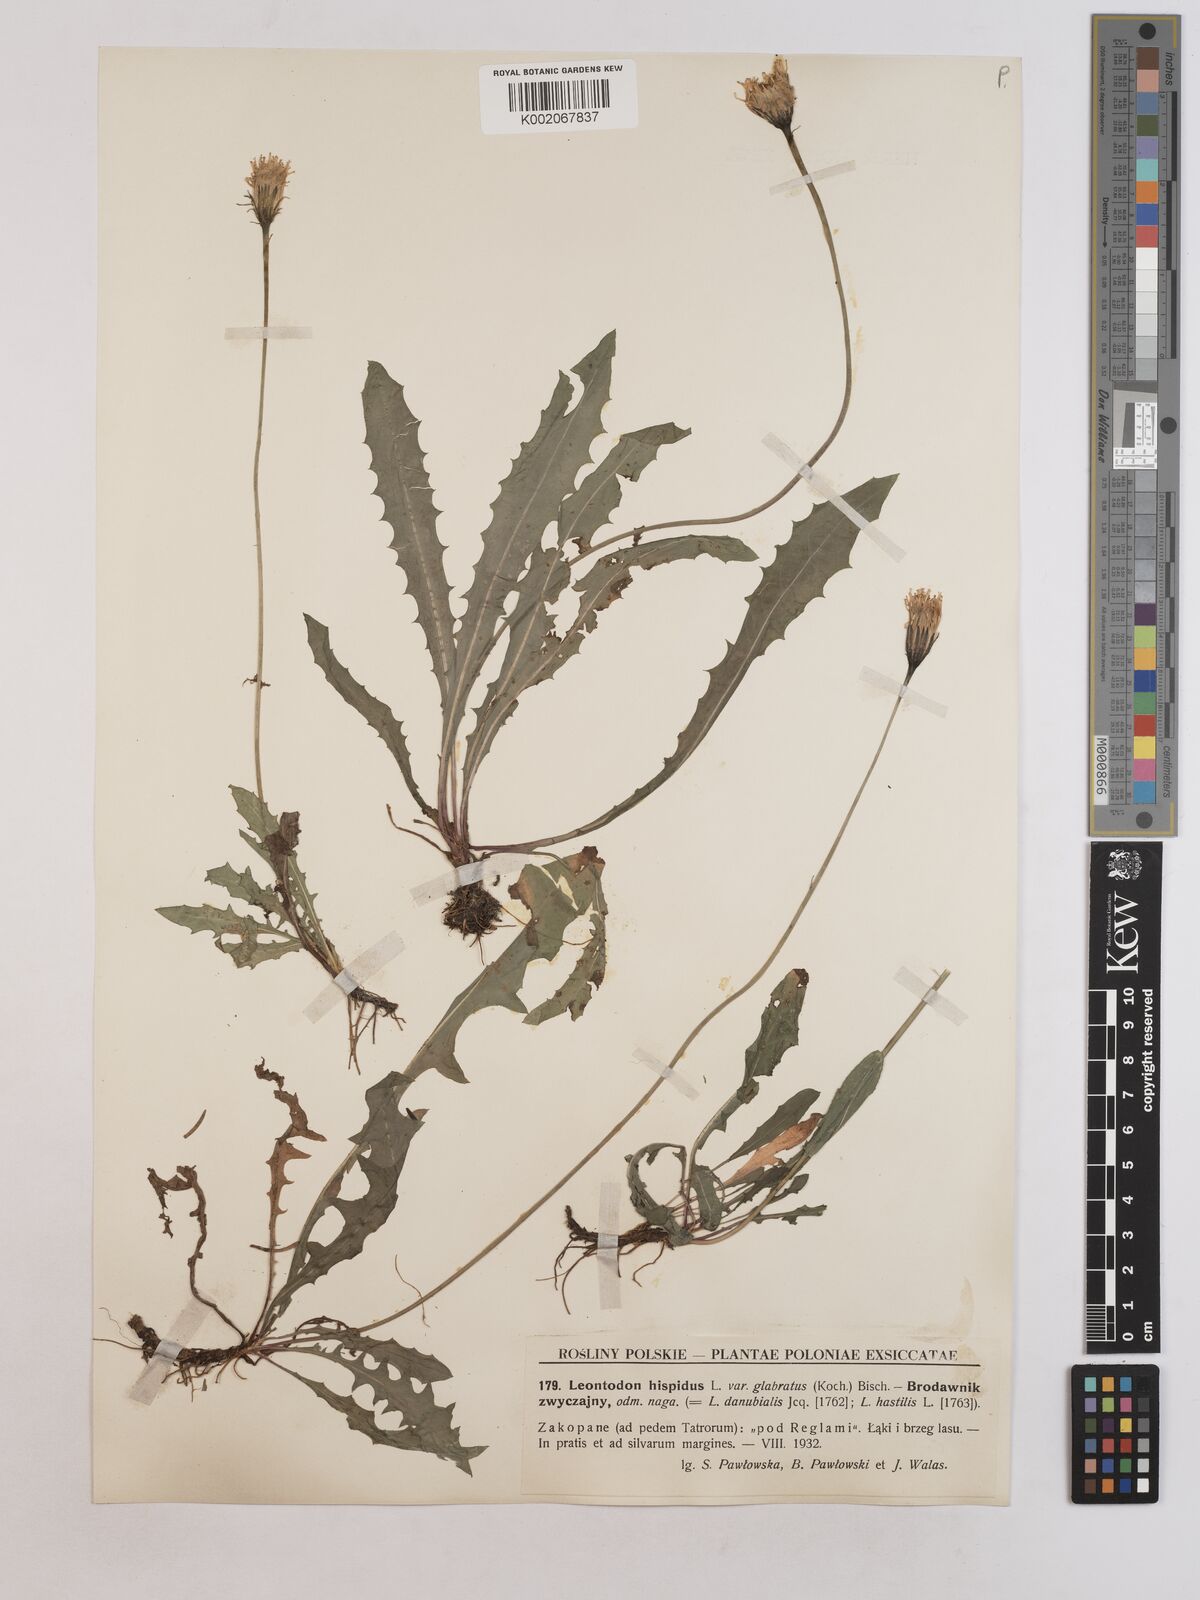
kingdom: Plantae
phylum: Tracheophyta
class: Magnoliopsida
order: Asterales
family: Asteraceae
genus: Leontodon
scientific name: Leontodon hispidus
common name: Rough hawkbit
